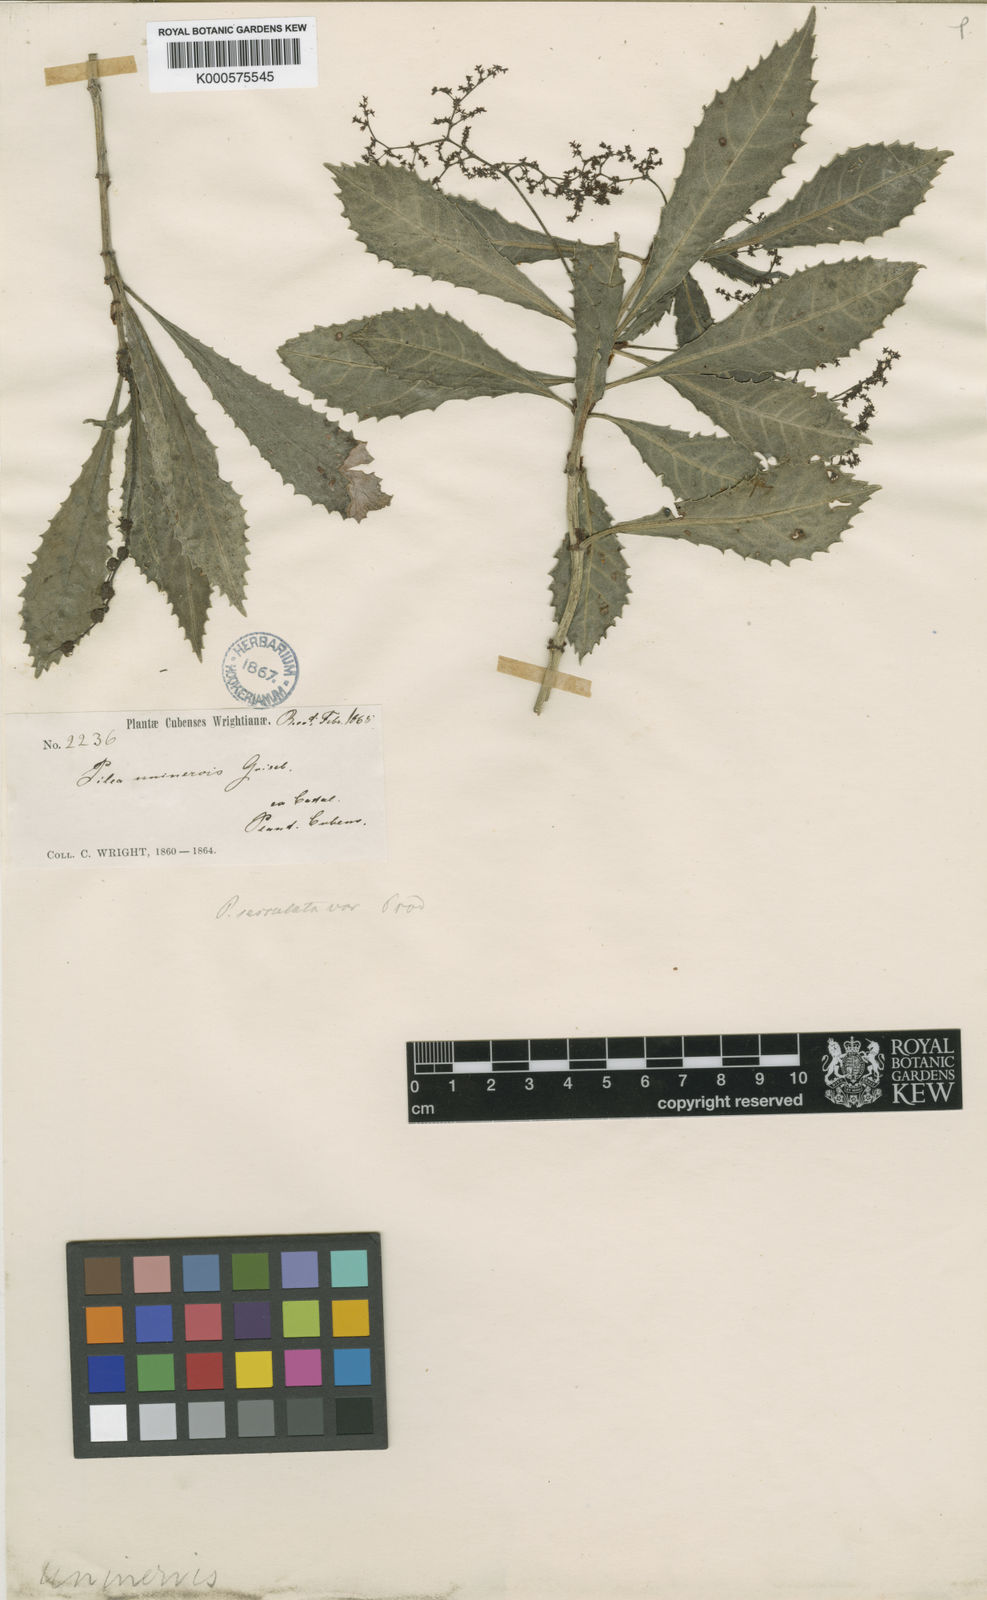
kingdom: Plantae
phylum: Tracheophyta
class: Magnoliopsida
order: Rosales
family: Urticaceae
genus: Pilea
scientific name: Pilea serrulata
